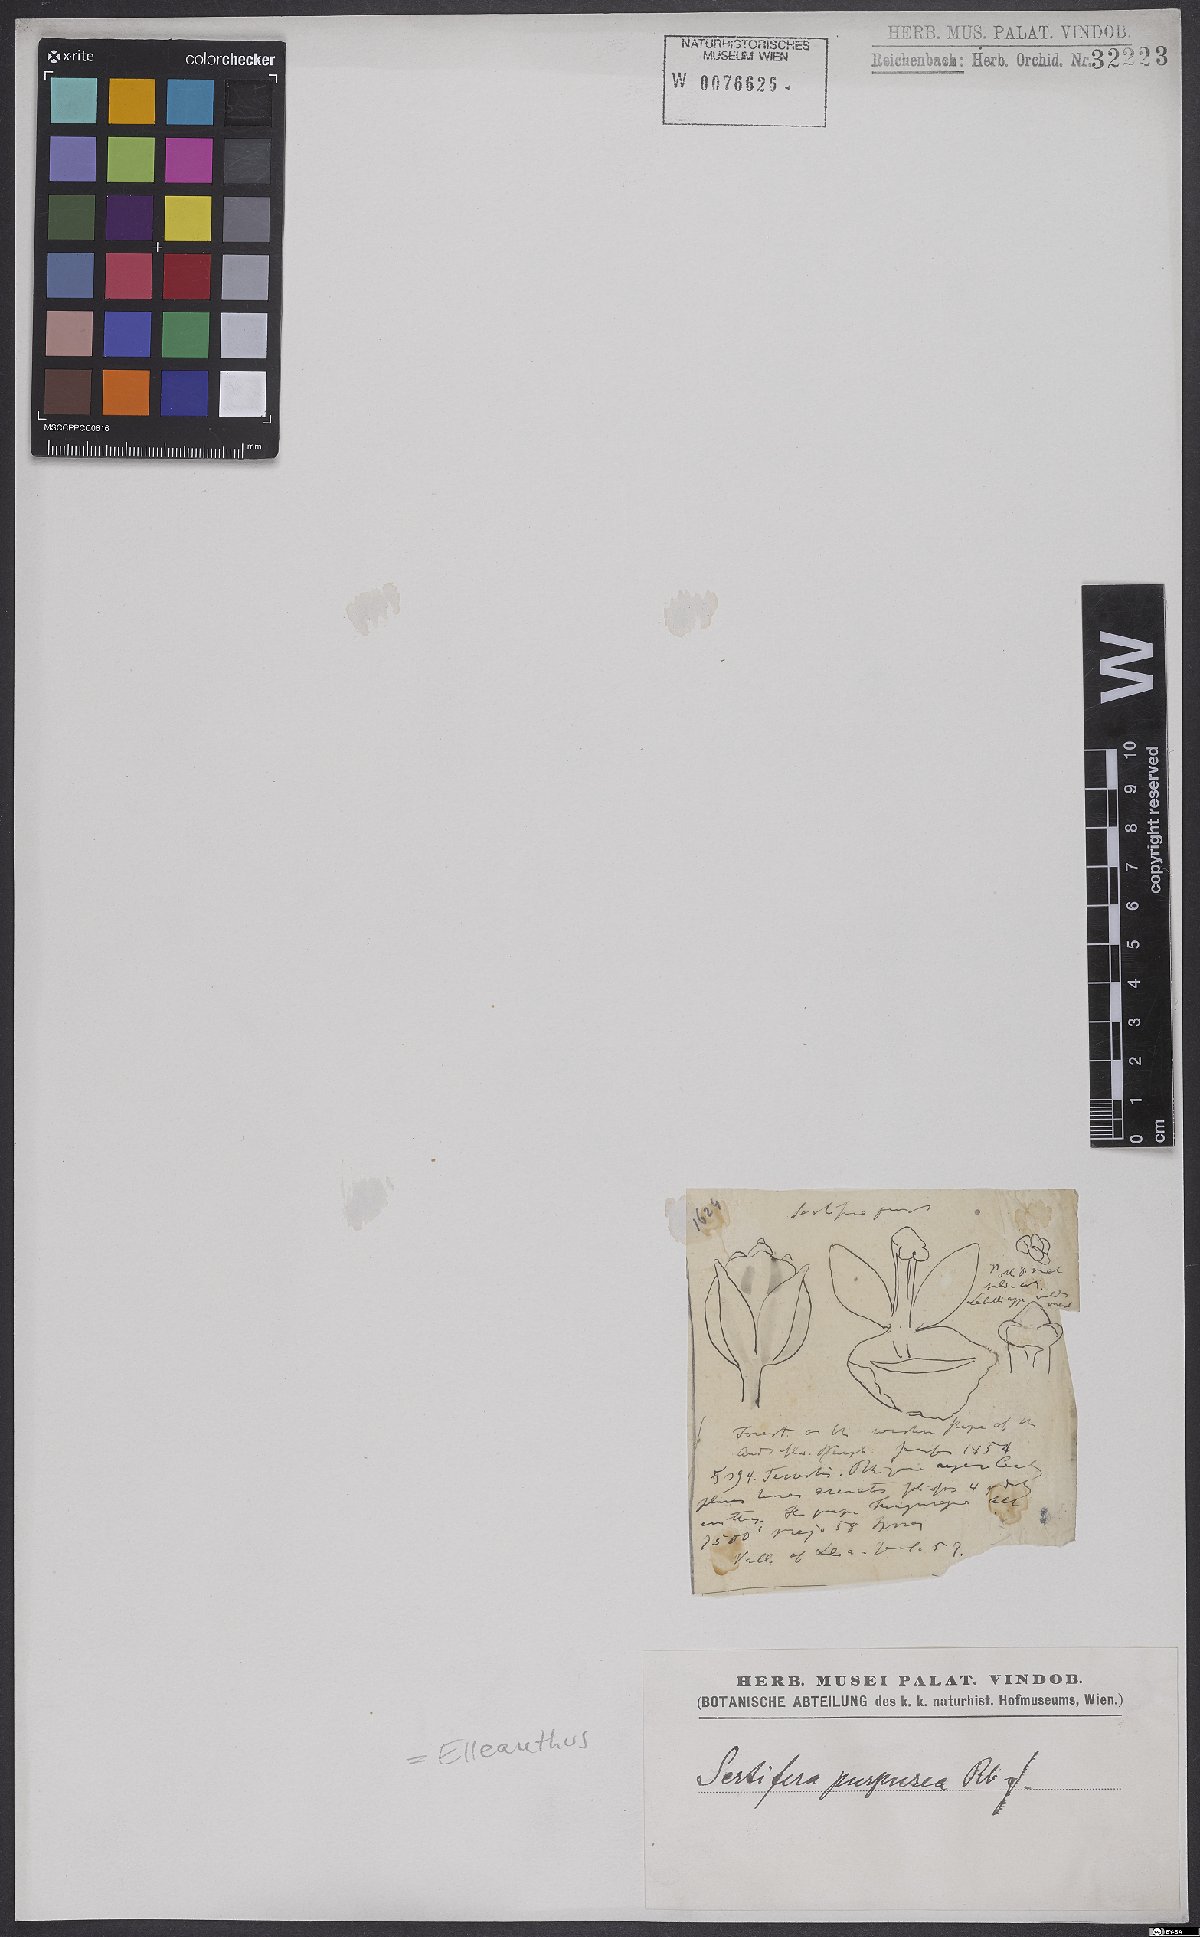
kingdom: Plantae
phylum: Tracheophyta
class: Liliopsida
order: Asparagales
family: Orchidaceae
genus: Sertifera
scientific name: Sertifera purpurea
